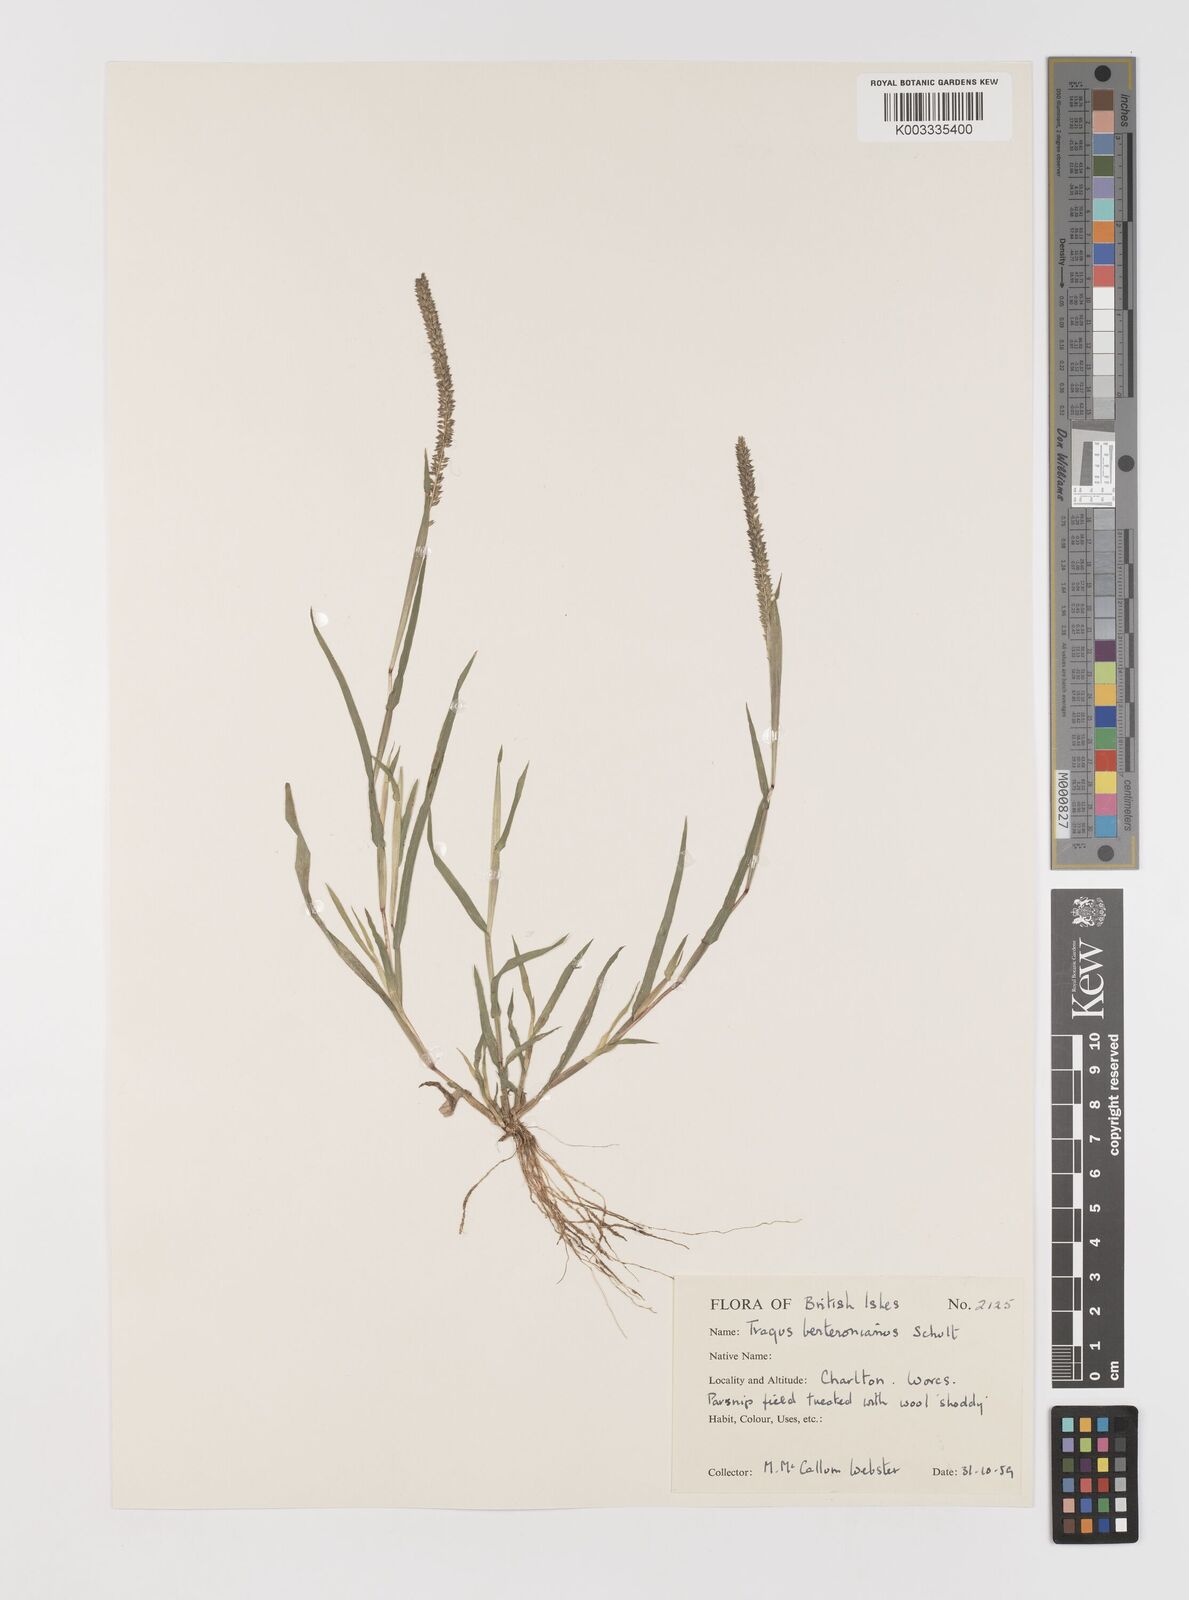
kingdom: Plantae
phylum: Tracheophyta
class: Liliopsida
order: Poales
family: Poaceae
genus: Tragus
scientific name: Tragus berteronianus
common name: African bur-grass
